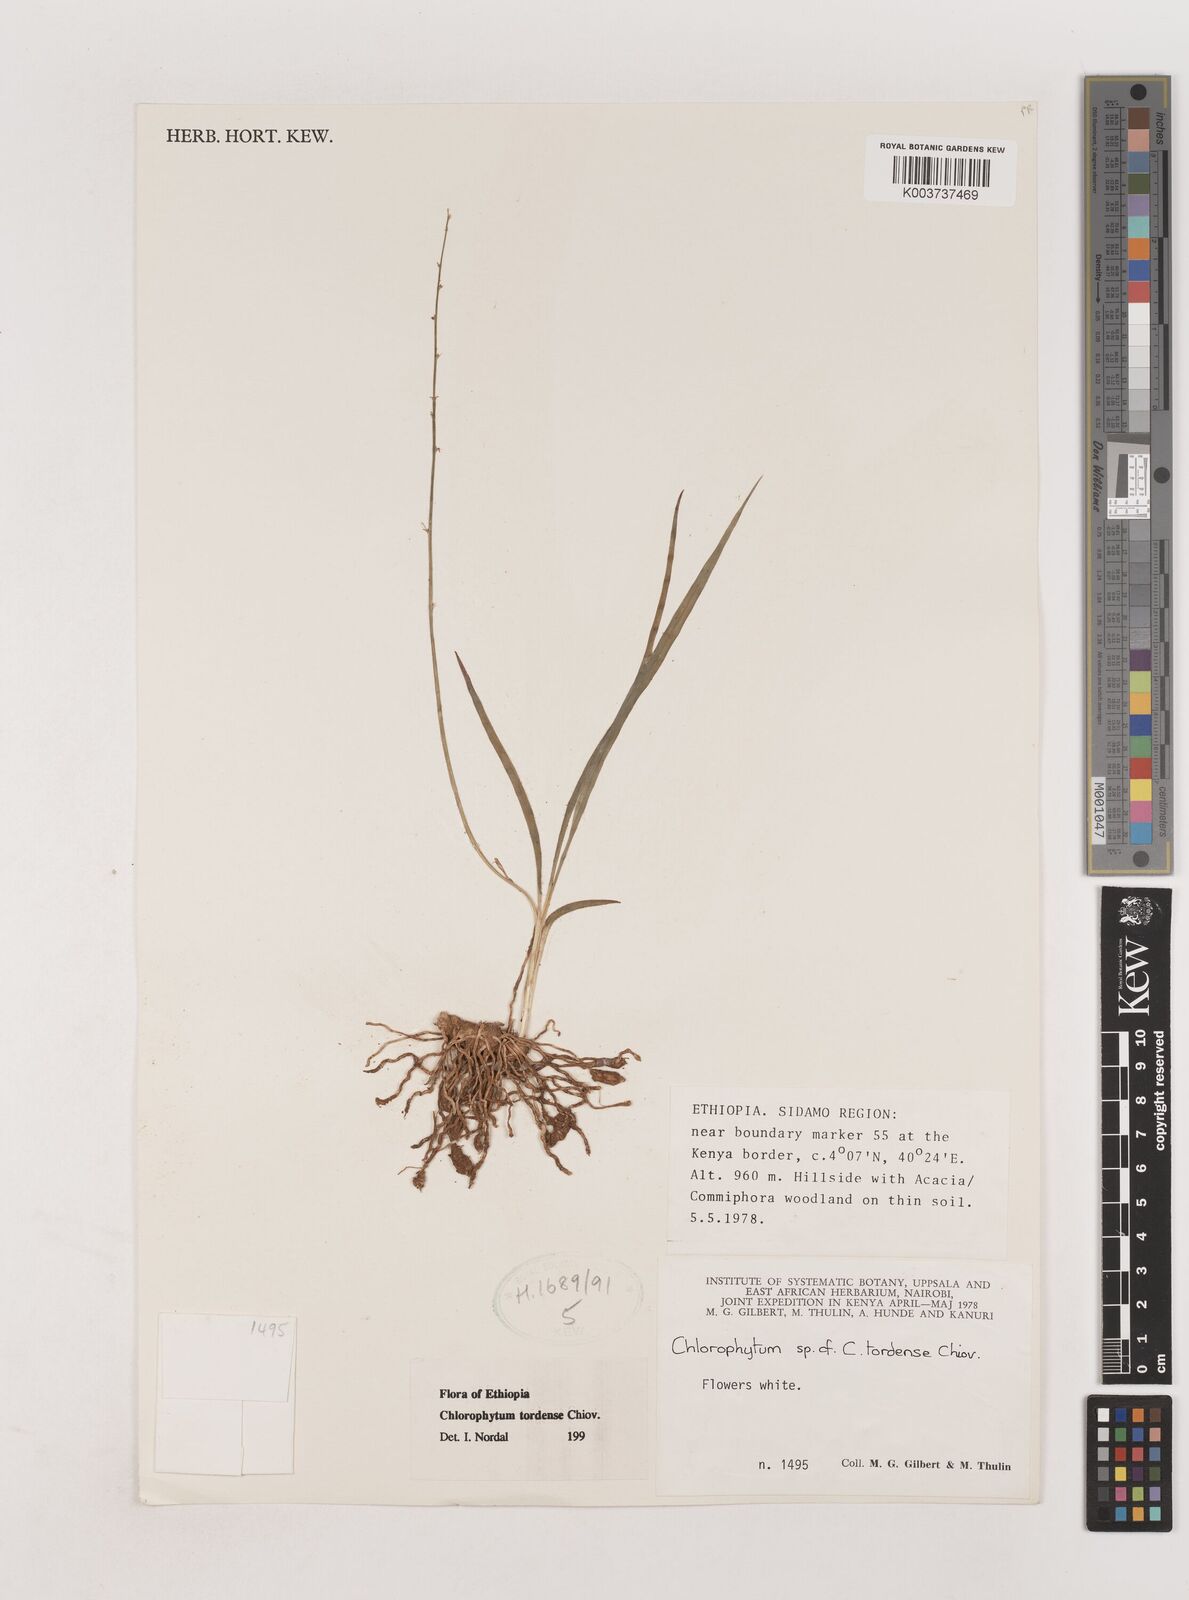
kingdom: Plantae
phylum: Tracheophyta
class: Liliopsida
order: Asparagales
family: Asparagaceae
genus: Chlorophytum
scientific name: Chlorophytum tordense
